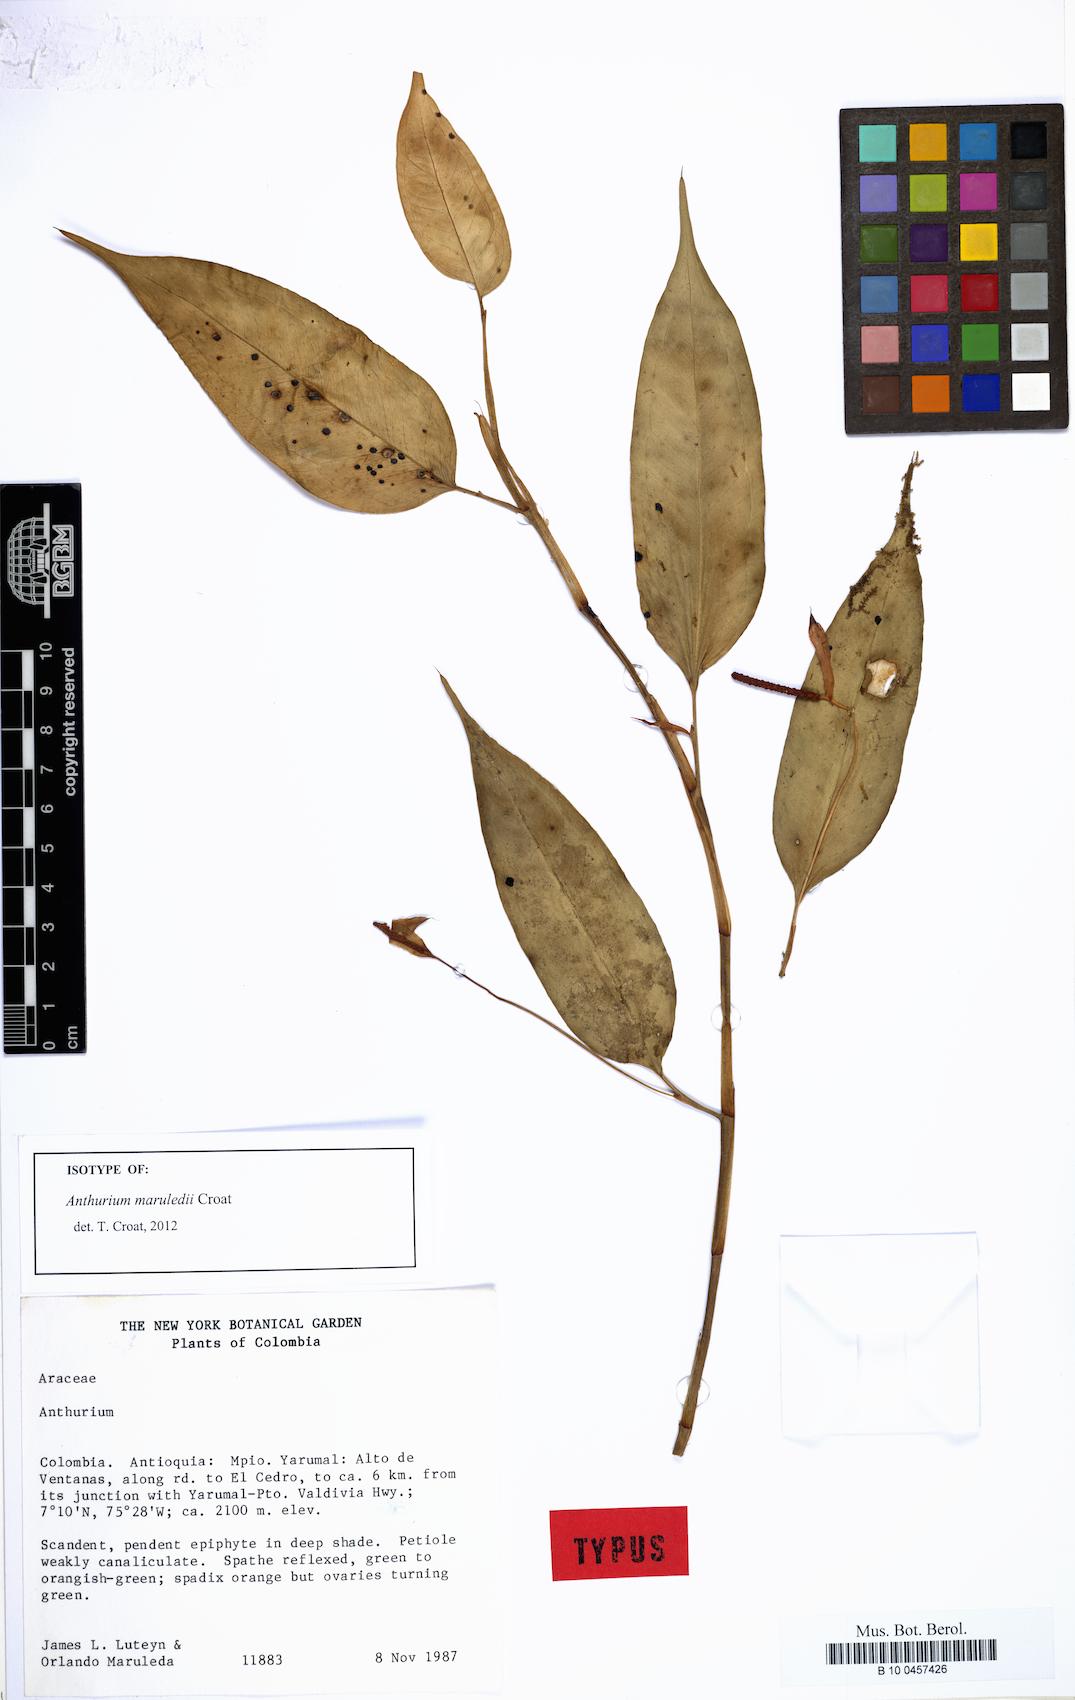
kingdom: Plantae
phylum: Tracheophyta
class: Liliopsida
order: Alismatales
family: Araceae
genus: Anthurium
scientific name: Anthurium maruledii
